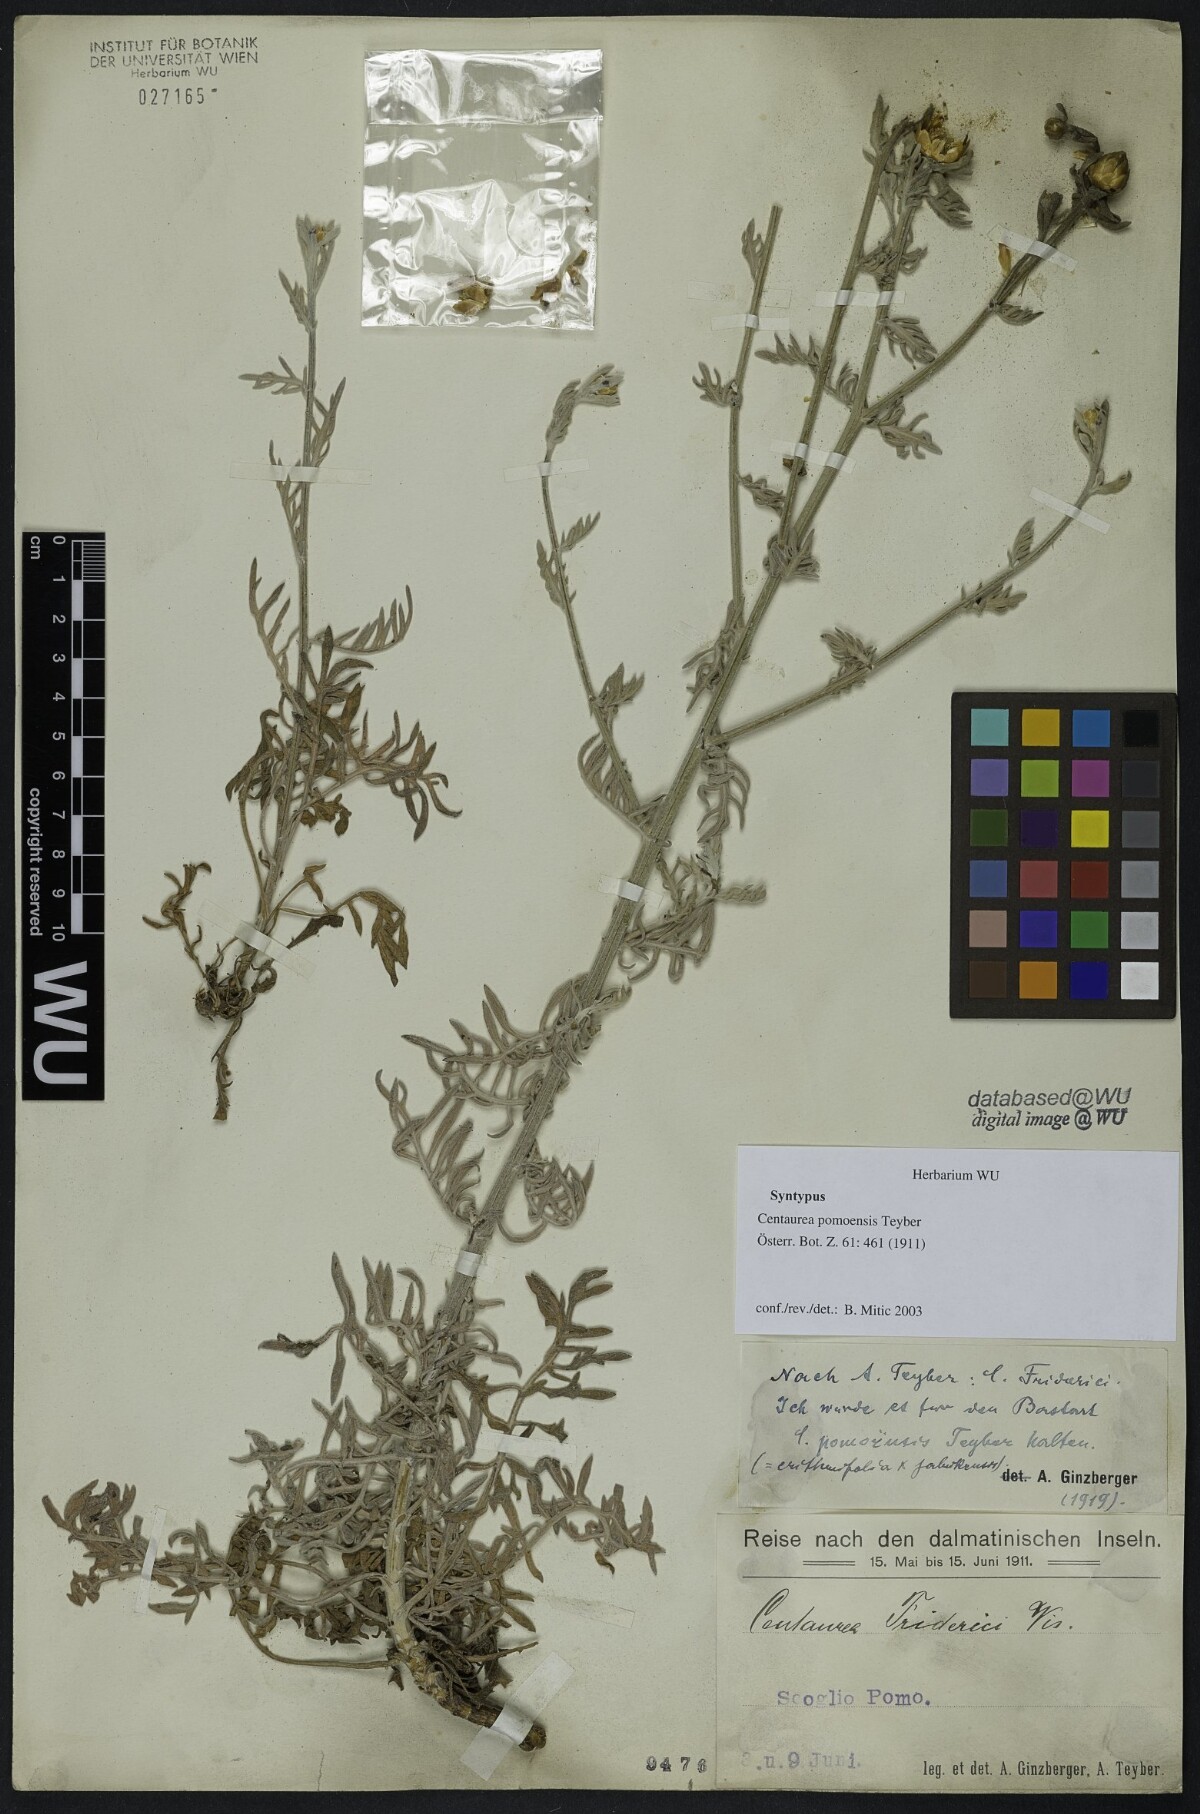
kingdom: Plantae
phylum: Tracheophyta
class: Magnoliopsida
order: Asterales
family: Asteraceae
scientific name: Asteraceae
